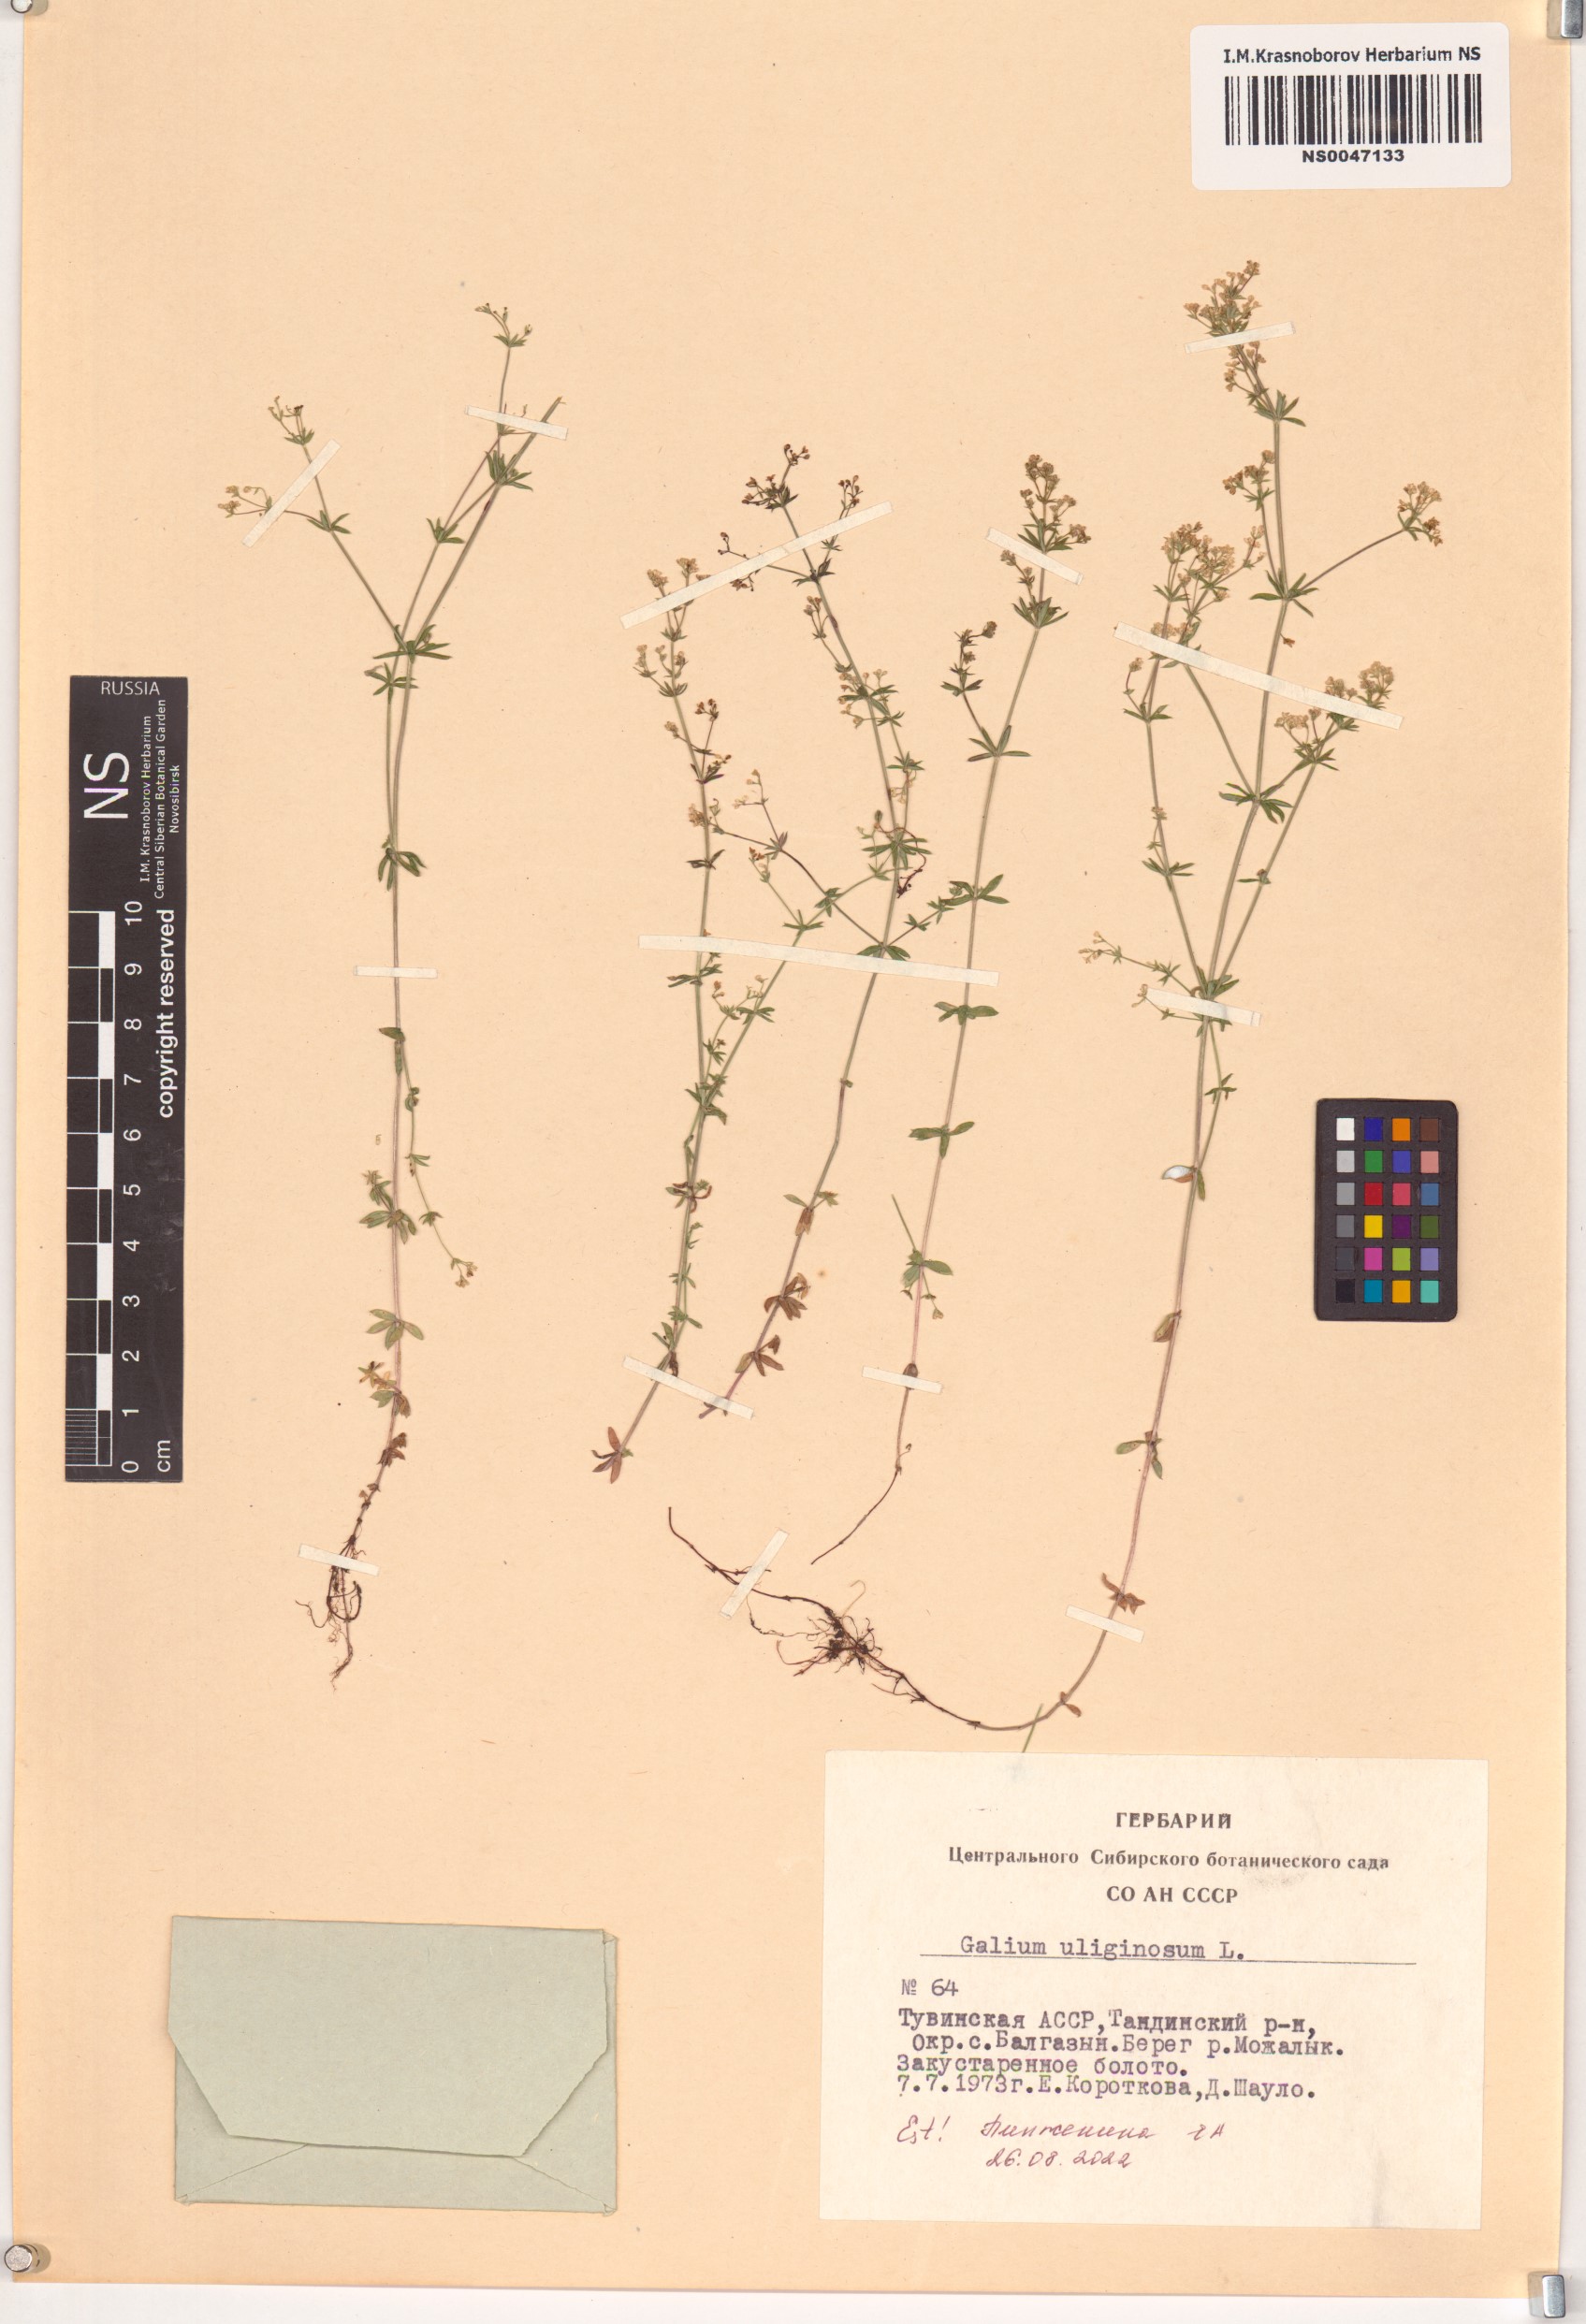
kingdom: Plantae
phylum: Tracheophyta
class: Magnoliopsida
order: Gentianales
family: Rubiaceae
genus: Galium
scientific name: Galium uliginosum
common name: Fen bedstraw
